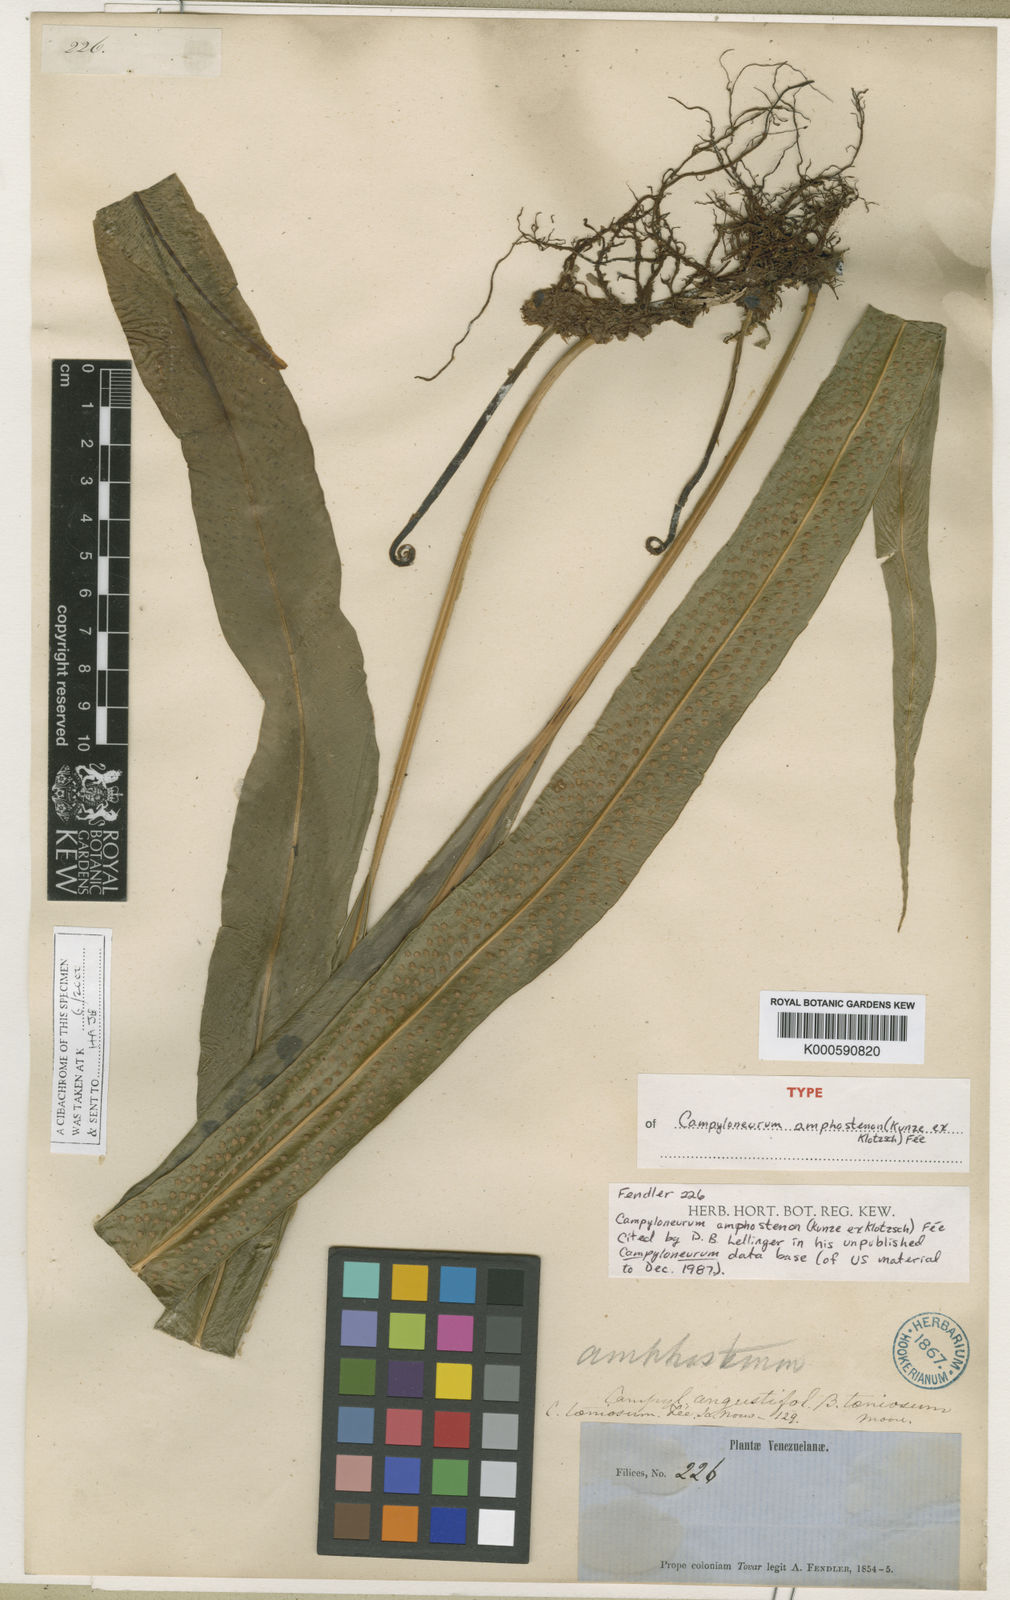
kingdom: Plantae
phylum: Tracheophyta
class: Polypodiopsida
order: Polypodiales
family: Polypodiaceae
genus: Campyloneurum
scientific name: Campyloneurum
